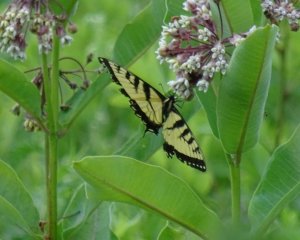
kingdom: Animalia
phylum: Arthropoda
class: Insecta
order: Lepidoptera
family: Papilionidae
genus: Pterourus
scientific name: Pterourus glaucus
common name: Eastern Tiger Swallowtail
